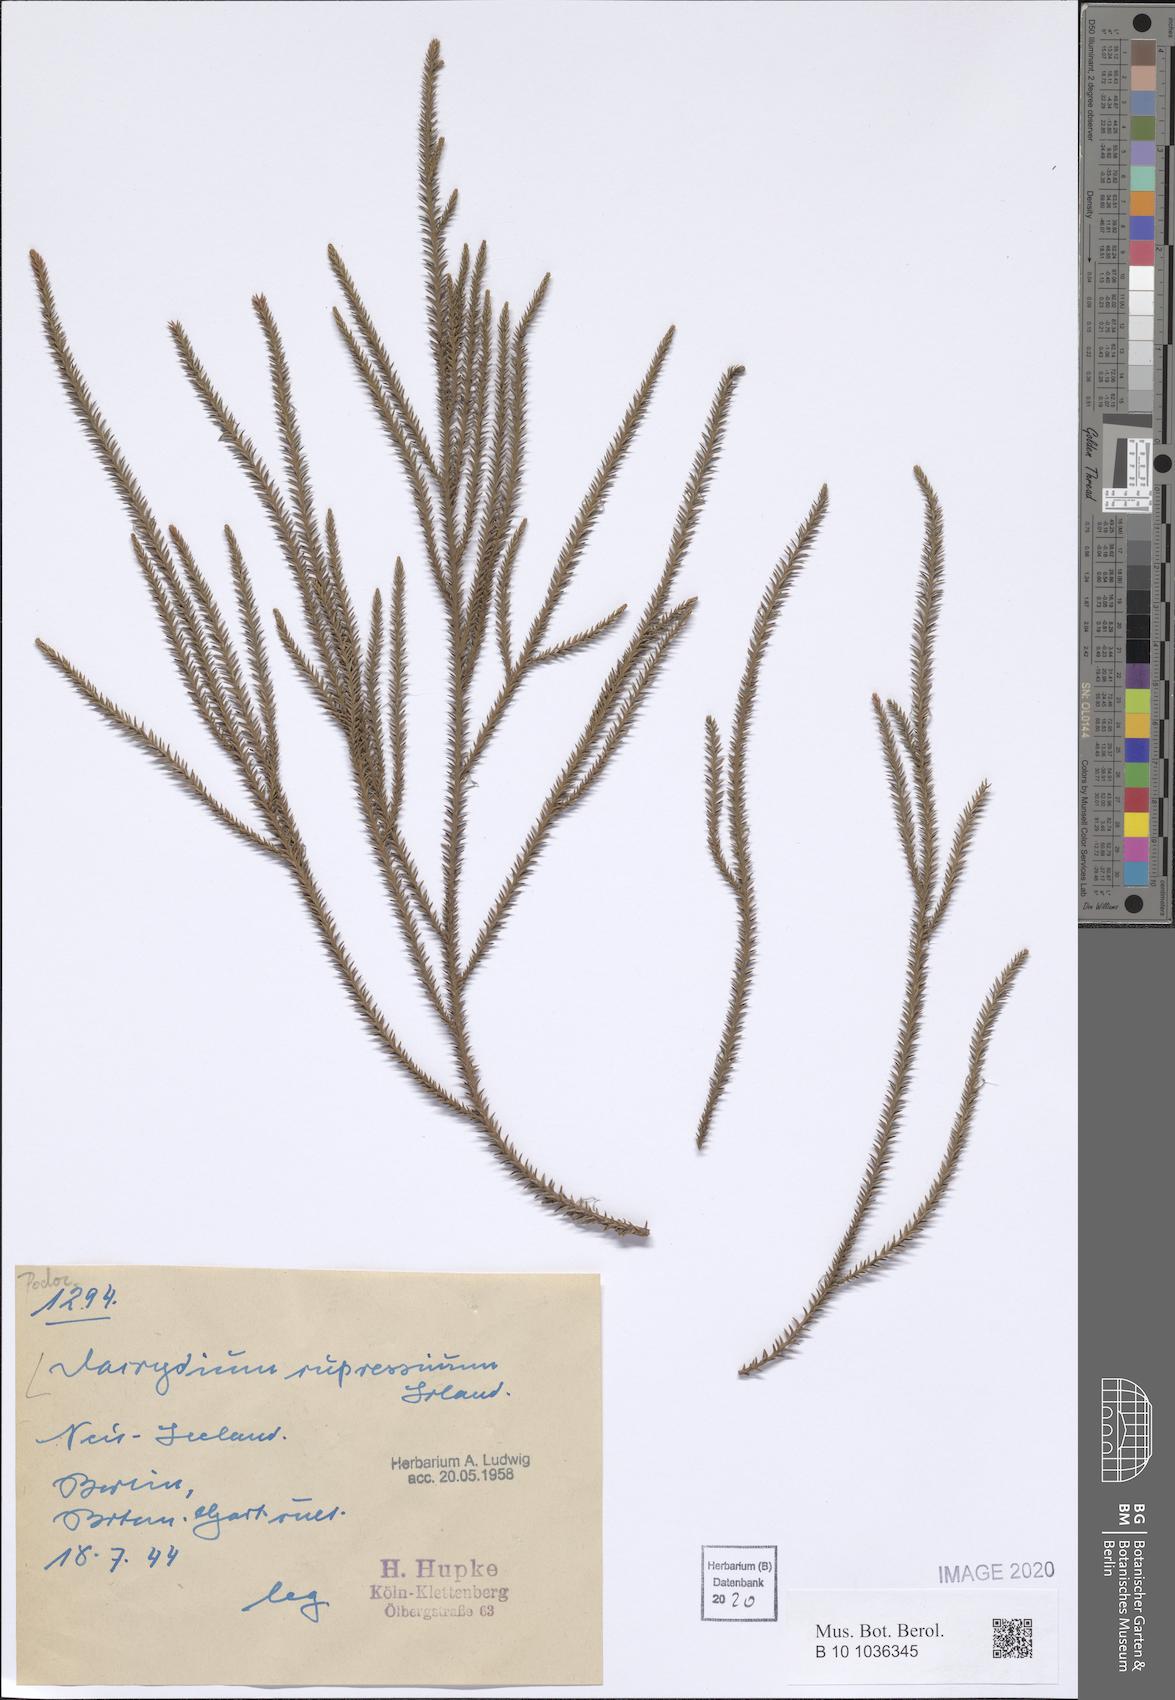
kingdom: Plantae
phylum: Tracheophyta
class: Pinopsida
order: Pinales
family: Podocarpaceae
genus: Dacrydium
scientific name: Dacrydium cupressinum
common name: Red pine
